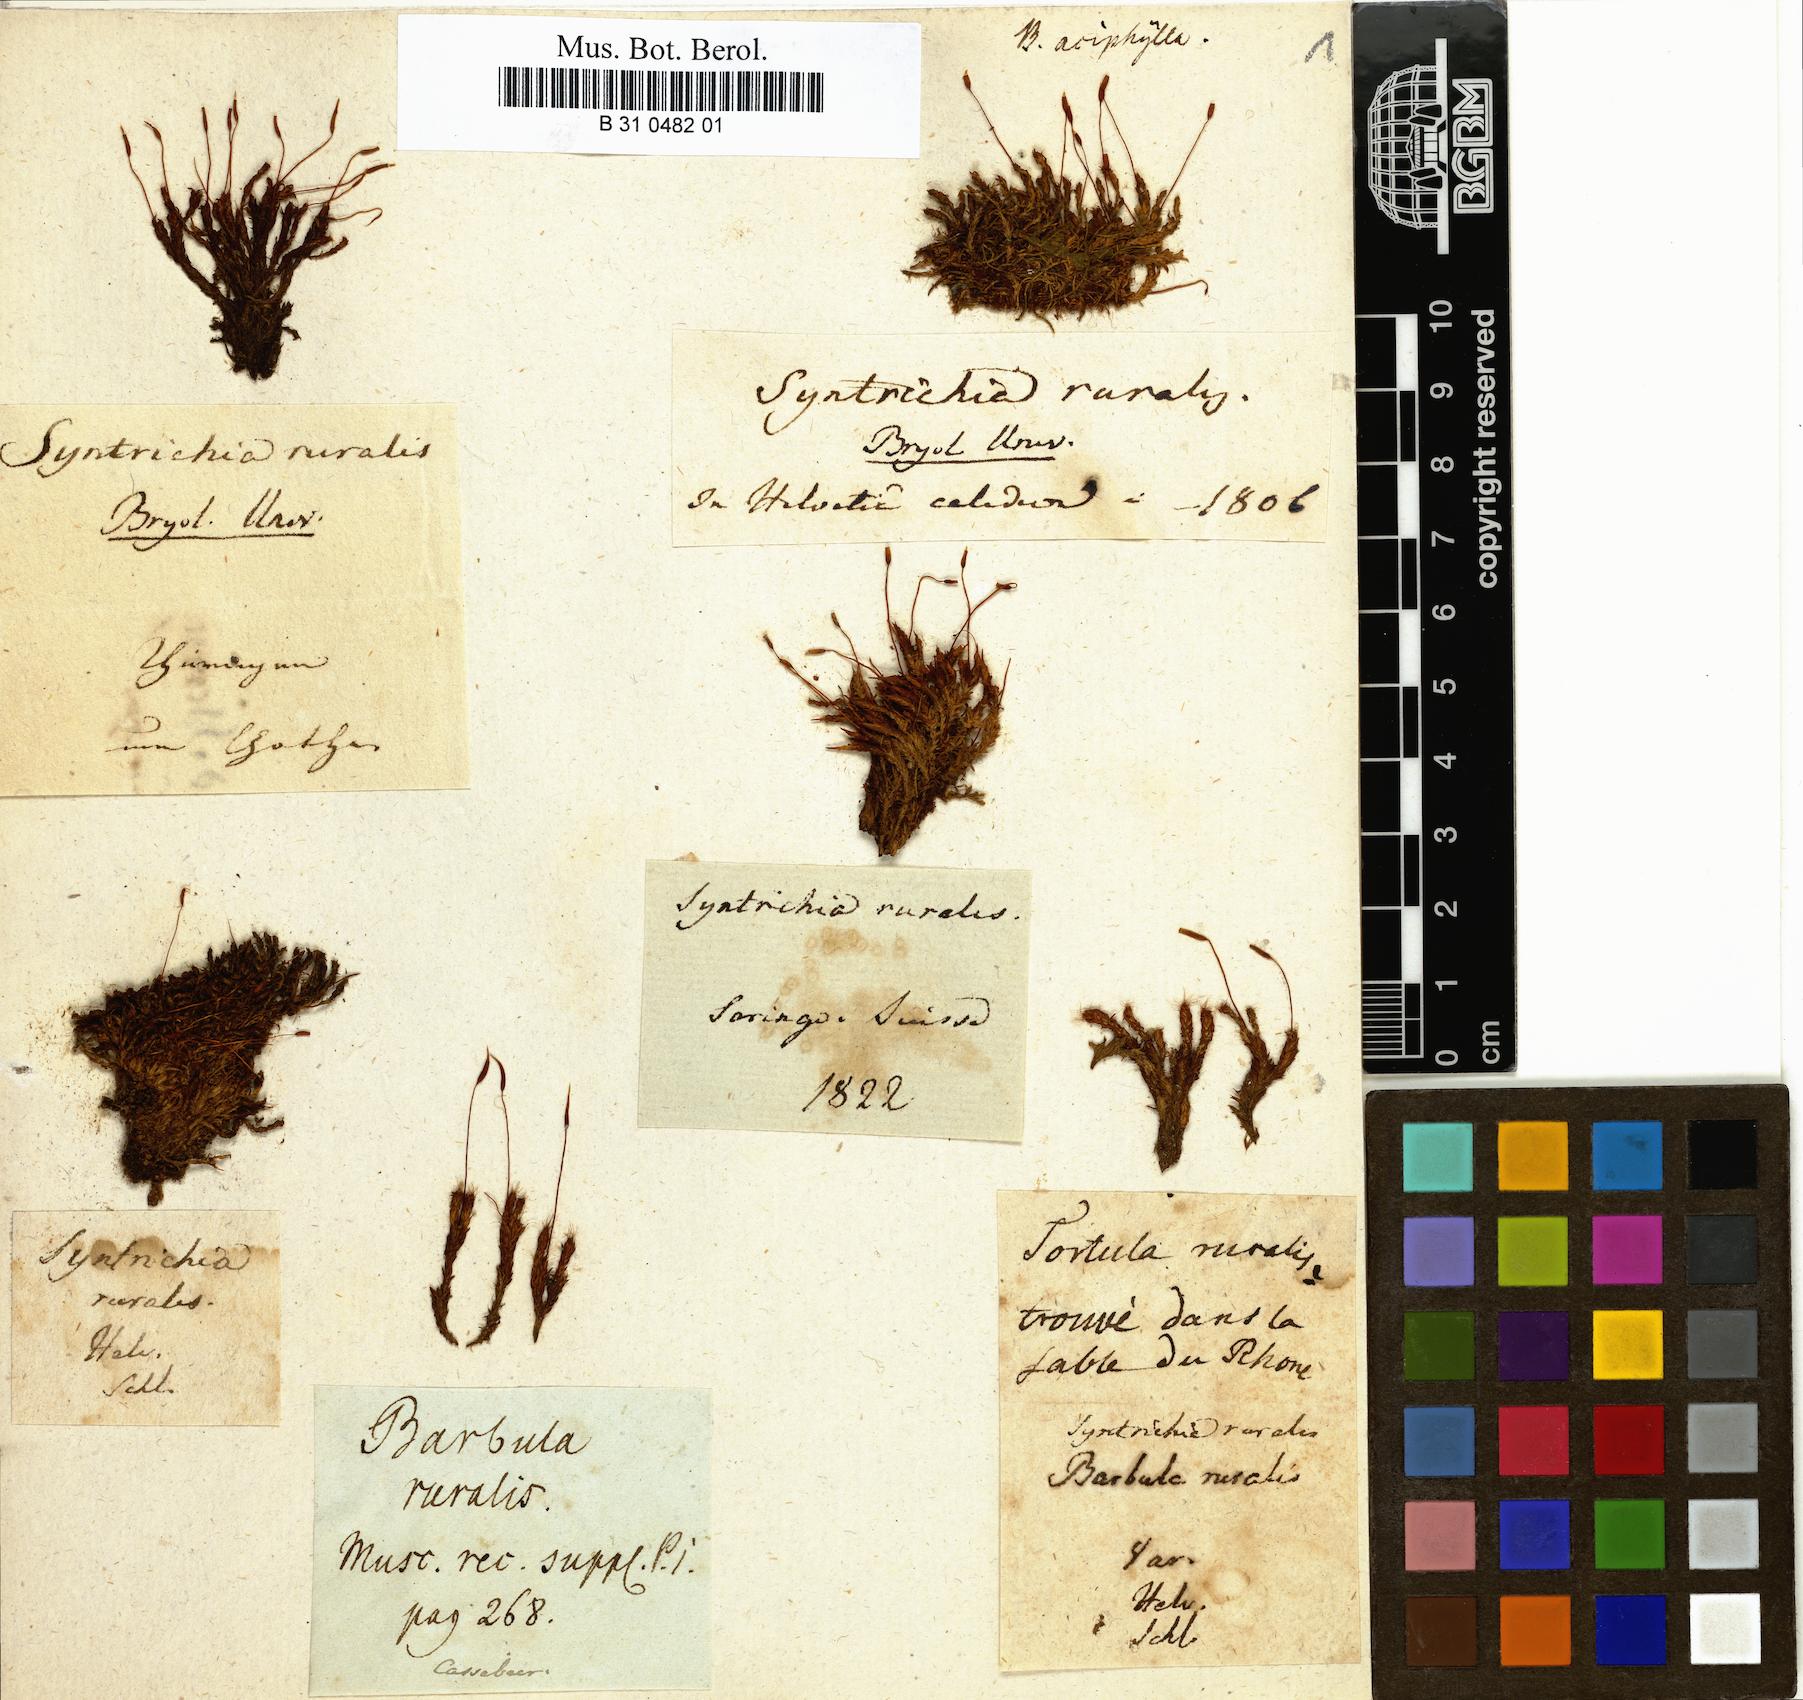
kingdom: Plantae
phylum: Bryophyta
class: Bryopsida
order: Pottiales
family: Pottiaceae
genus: Syntrichia
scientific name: Syntrichia ruralis
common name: Sidewalk screw moss
